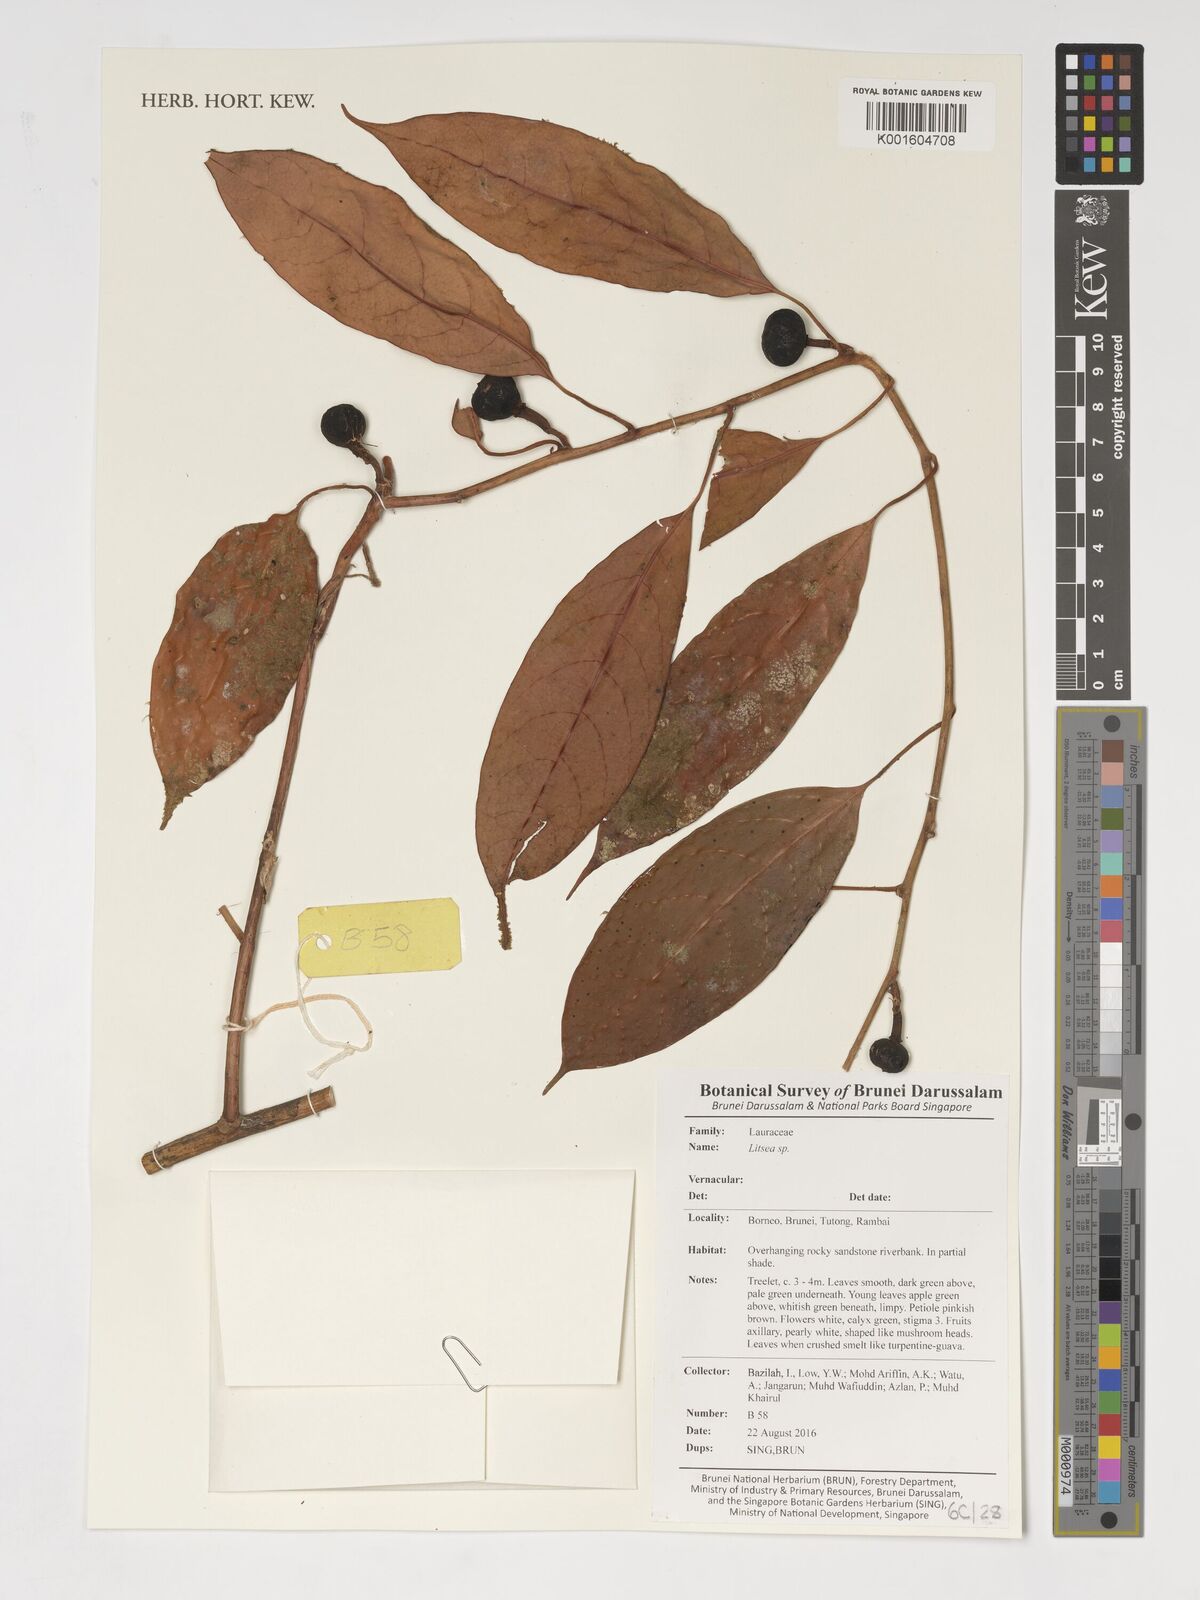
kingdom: Plantae
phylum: Tracheophyta
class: Magnoliopsida
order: Laurales
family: Lauraceae
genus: Litsea
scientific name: Litsea glutinosa
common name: Indian-laurel
